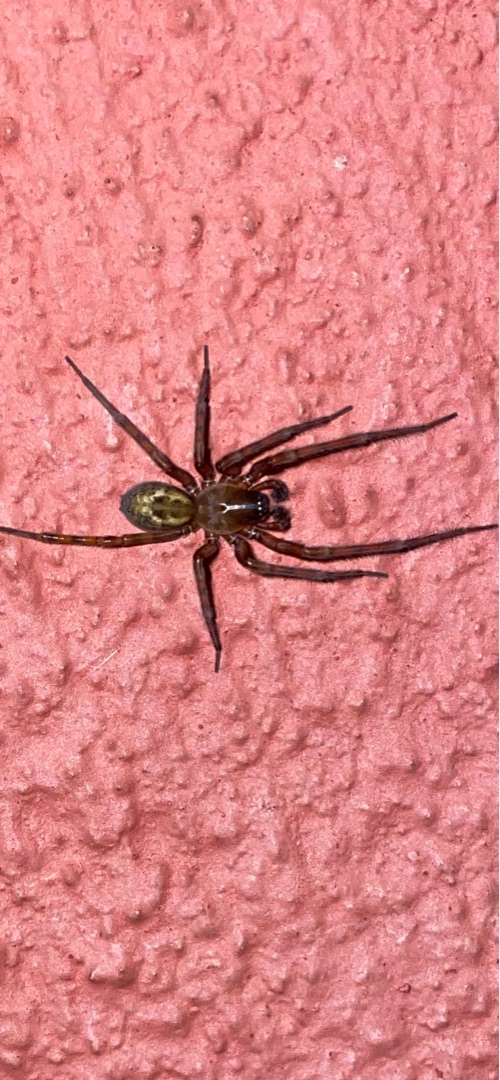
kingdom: Animalia
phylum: Arthropoda
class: Arachnida
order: Araneae
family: Amaurobiidae
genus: Amaurobius
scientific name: Amaurobius similis
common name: Huskartespinder
